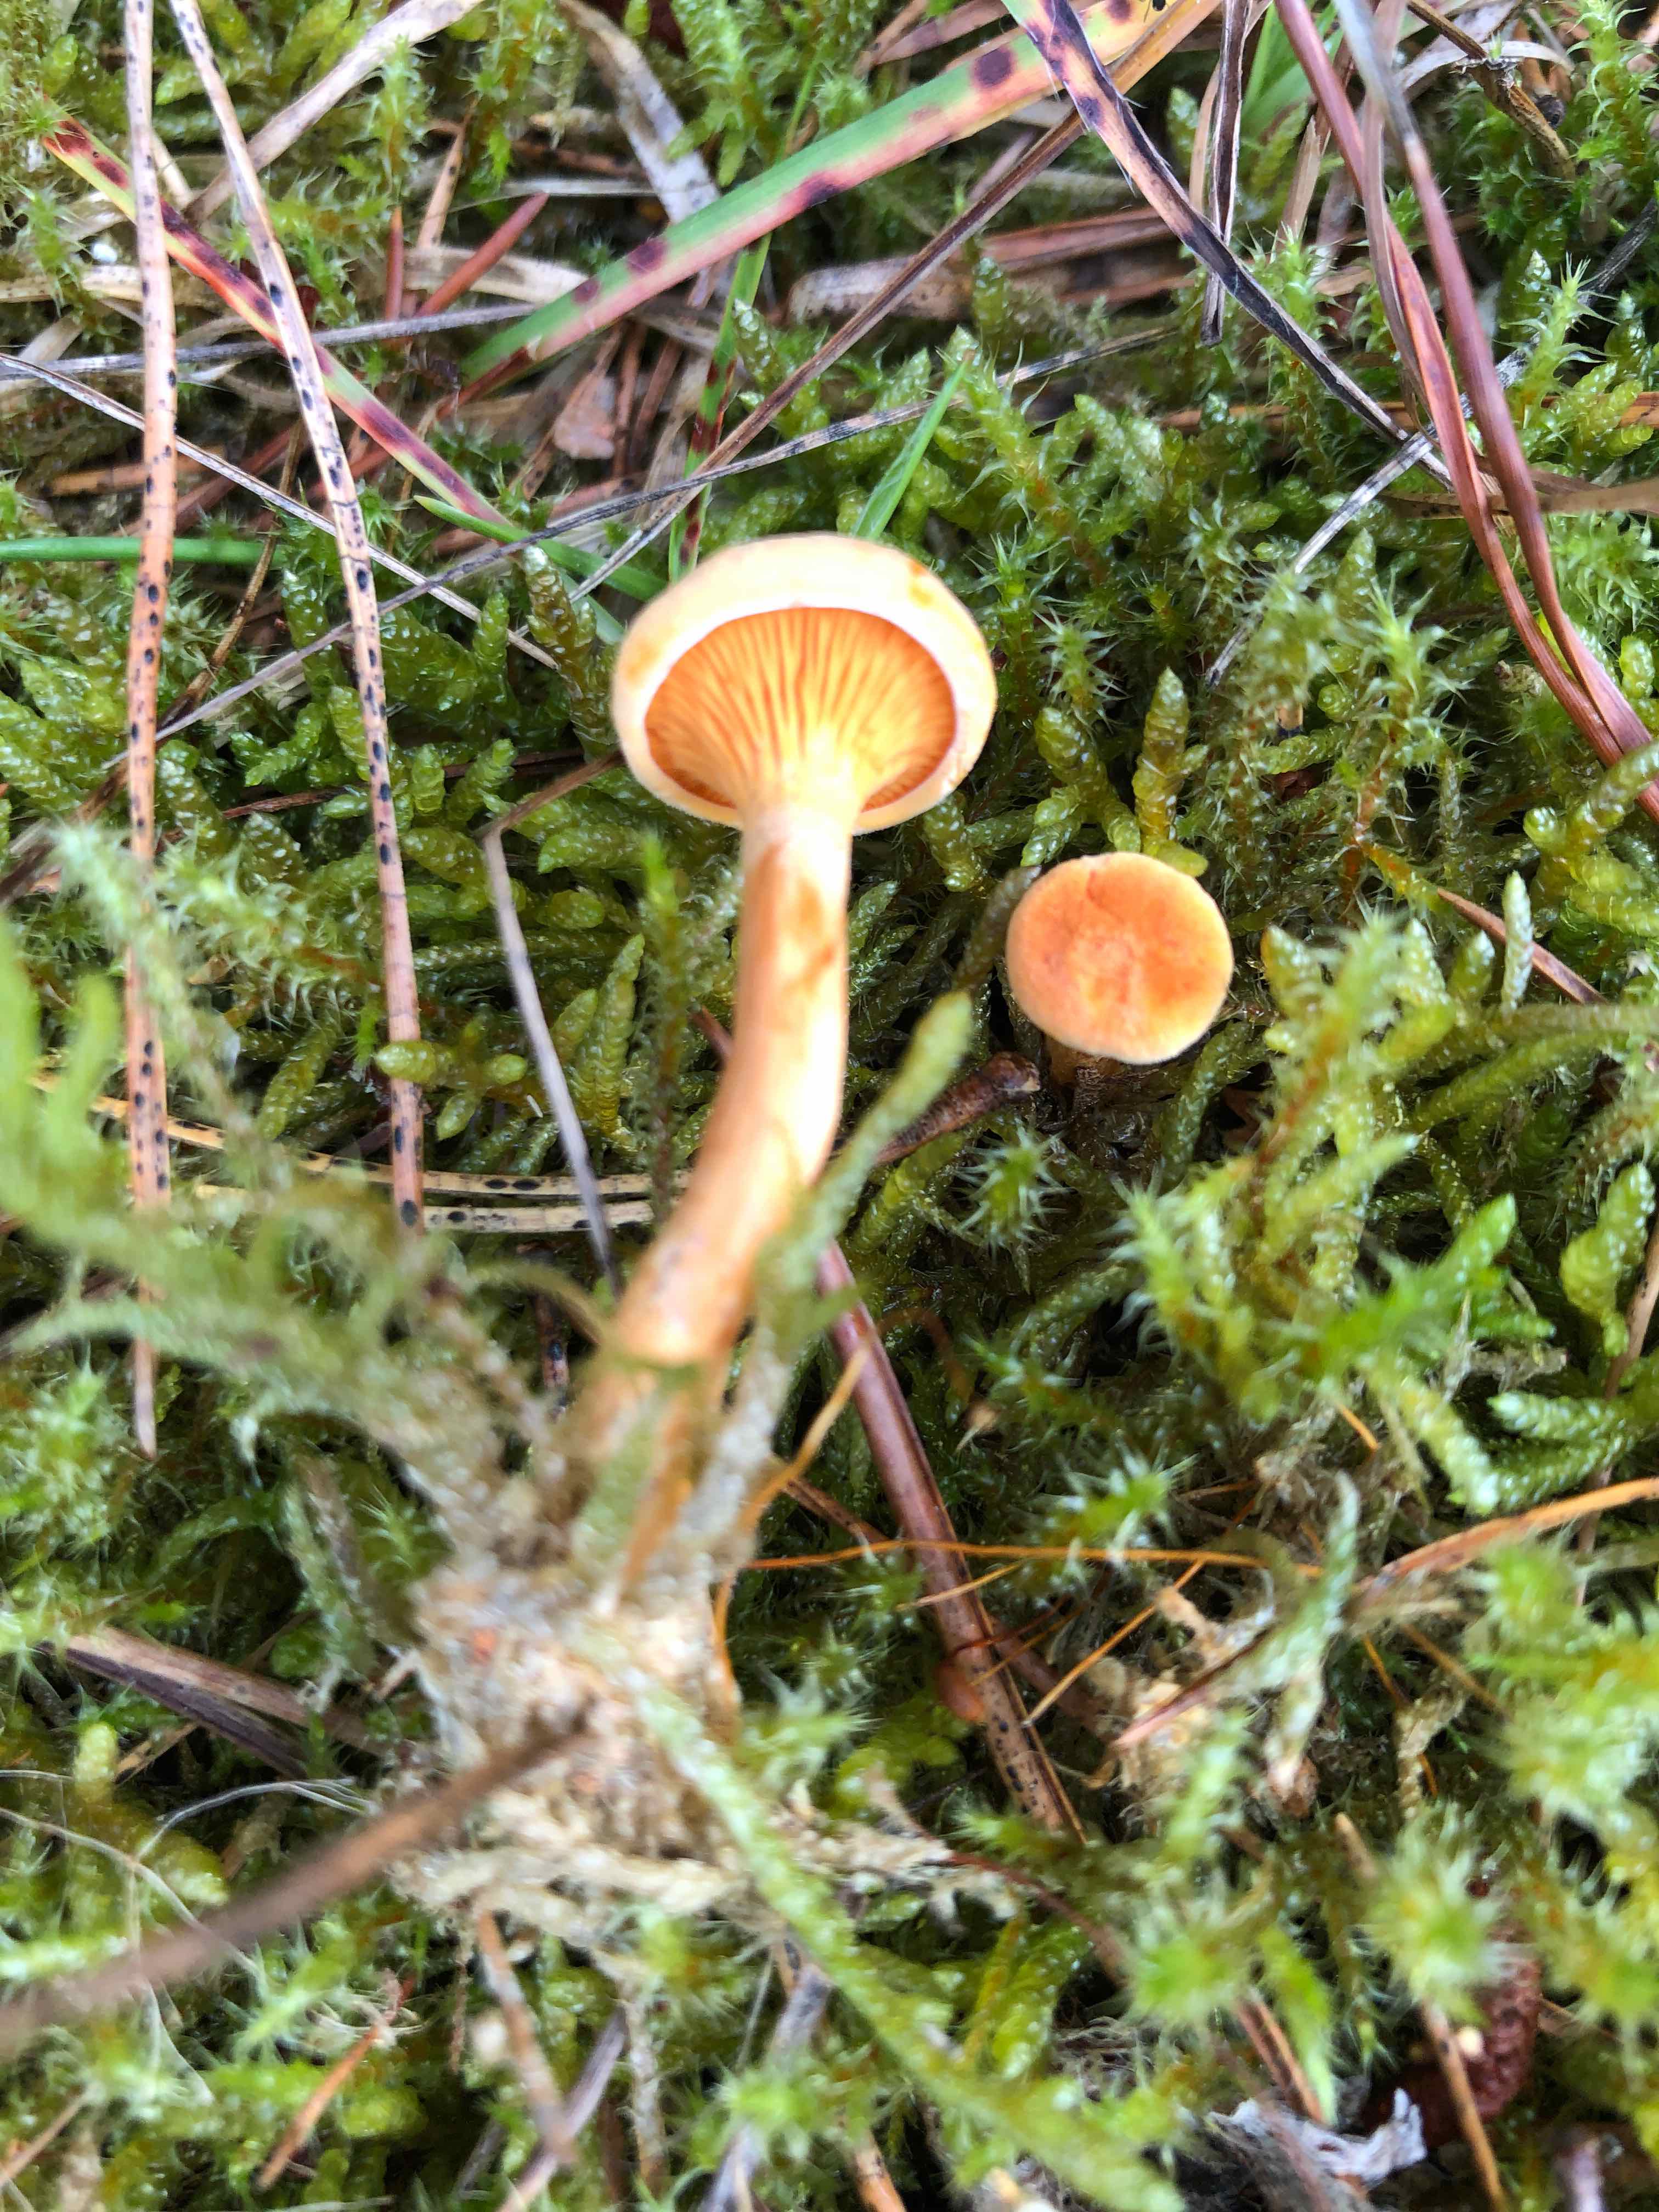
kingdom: Fungi
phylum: Basidiomycota
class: Agaricomycetes
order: Boletales
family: Hygrophoropsidaceae
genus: Hygrophoropsis
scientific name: Hygrophoropsis aurantiaca
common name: almindelig orangekantarel
